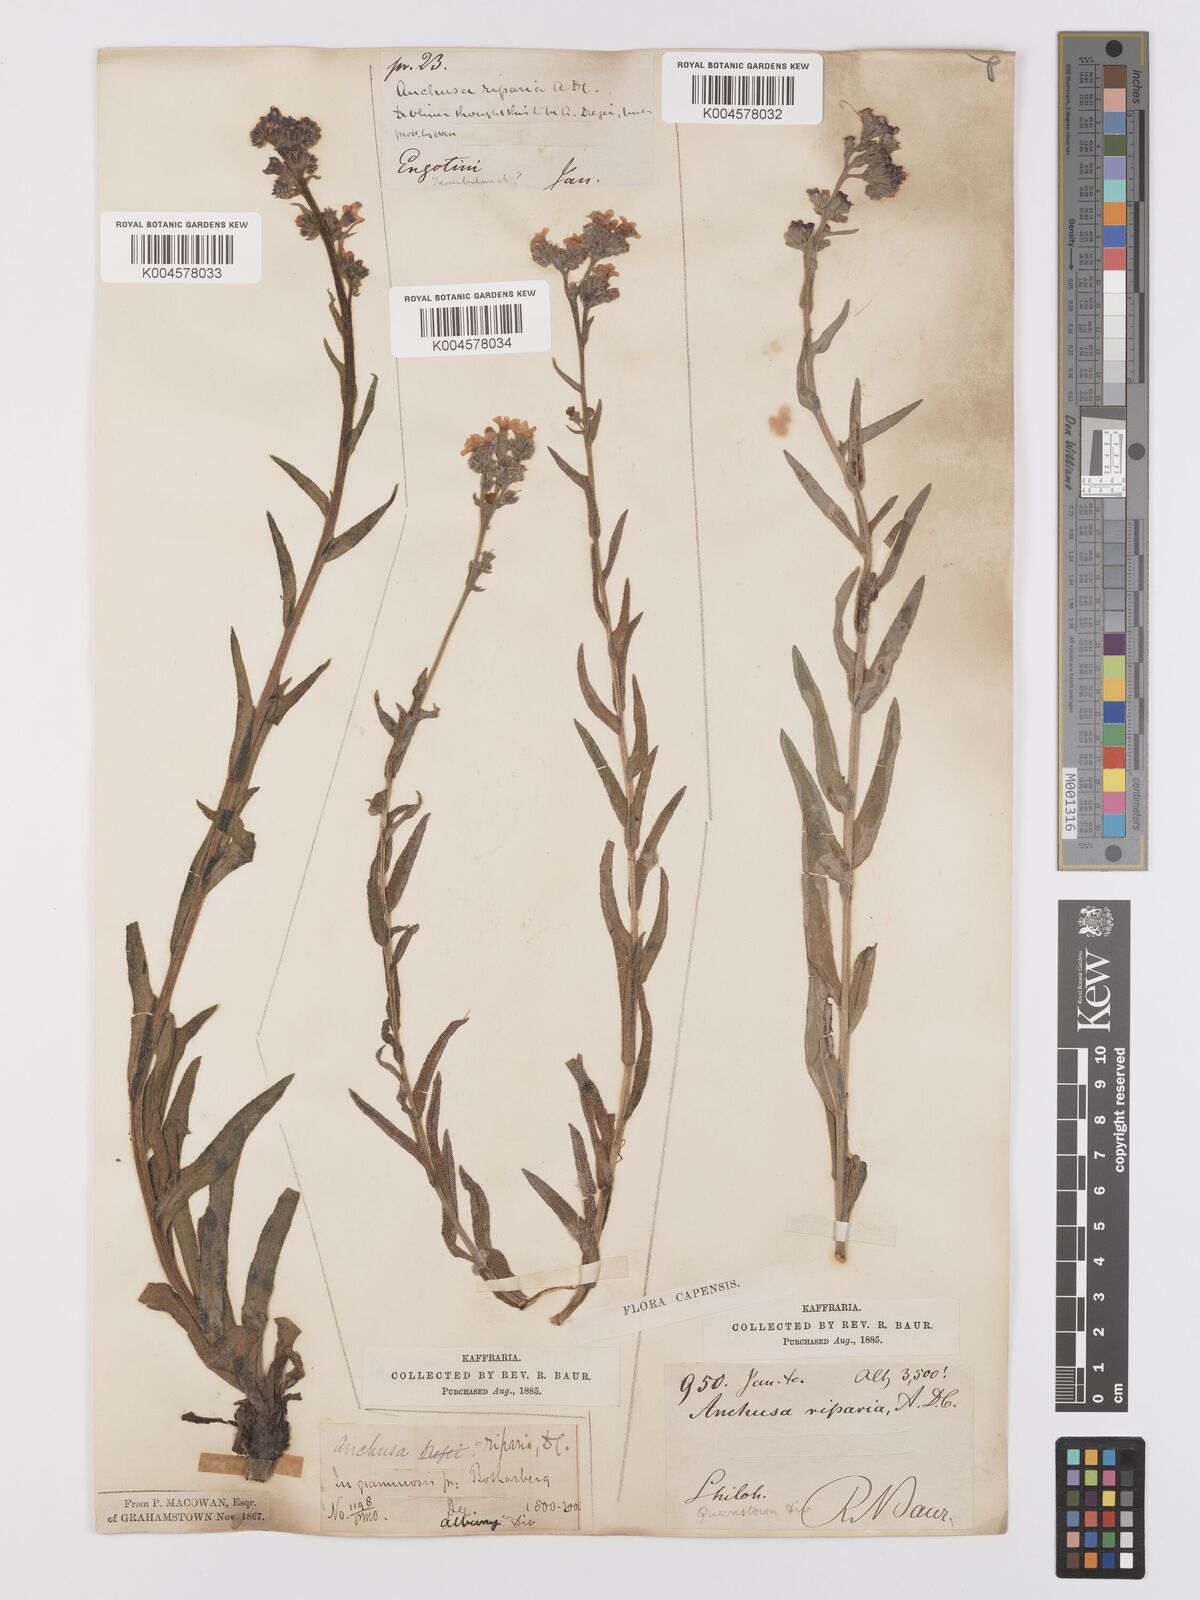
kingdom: Plantae
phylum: Tracheophyta
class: Magnoliopsida
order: Boraginales
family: Boraginaceae
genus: Anchusa
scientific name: Anchusa capensis
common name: Cape bugloss
